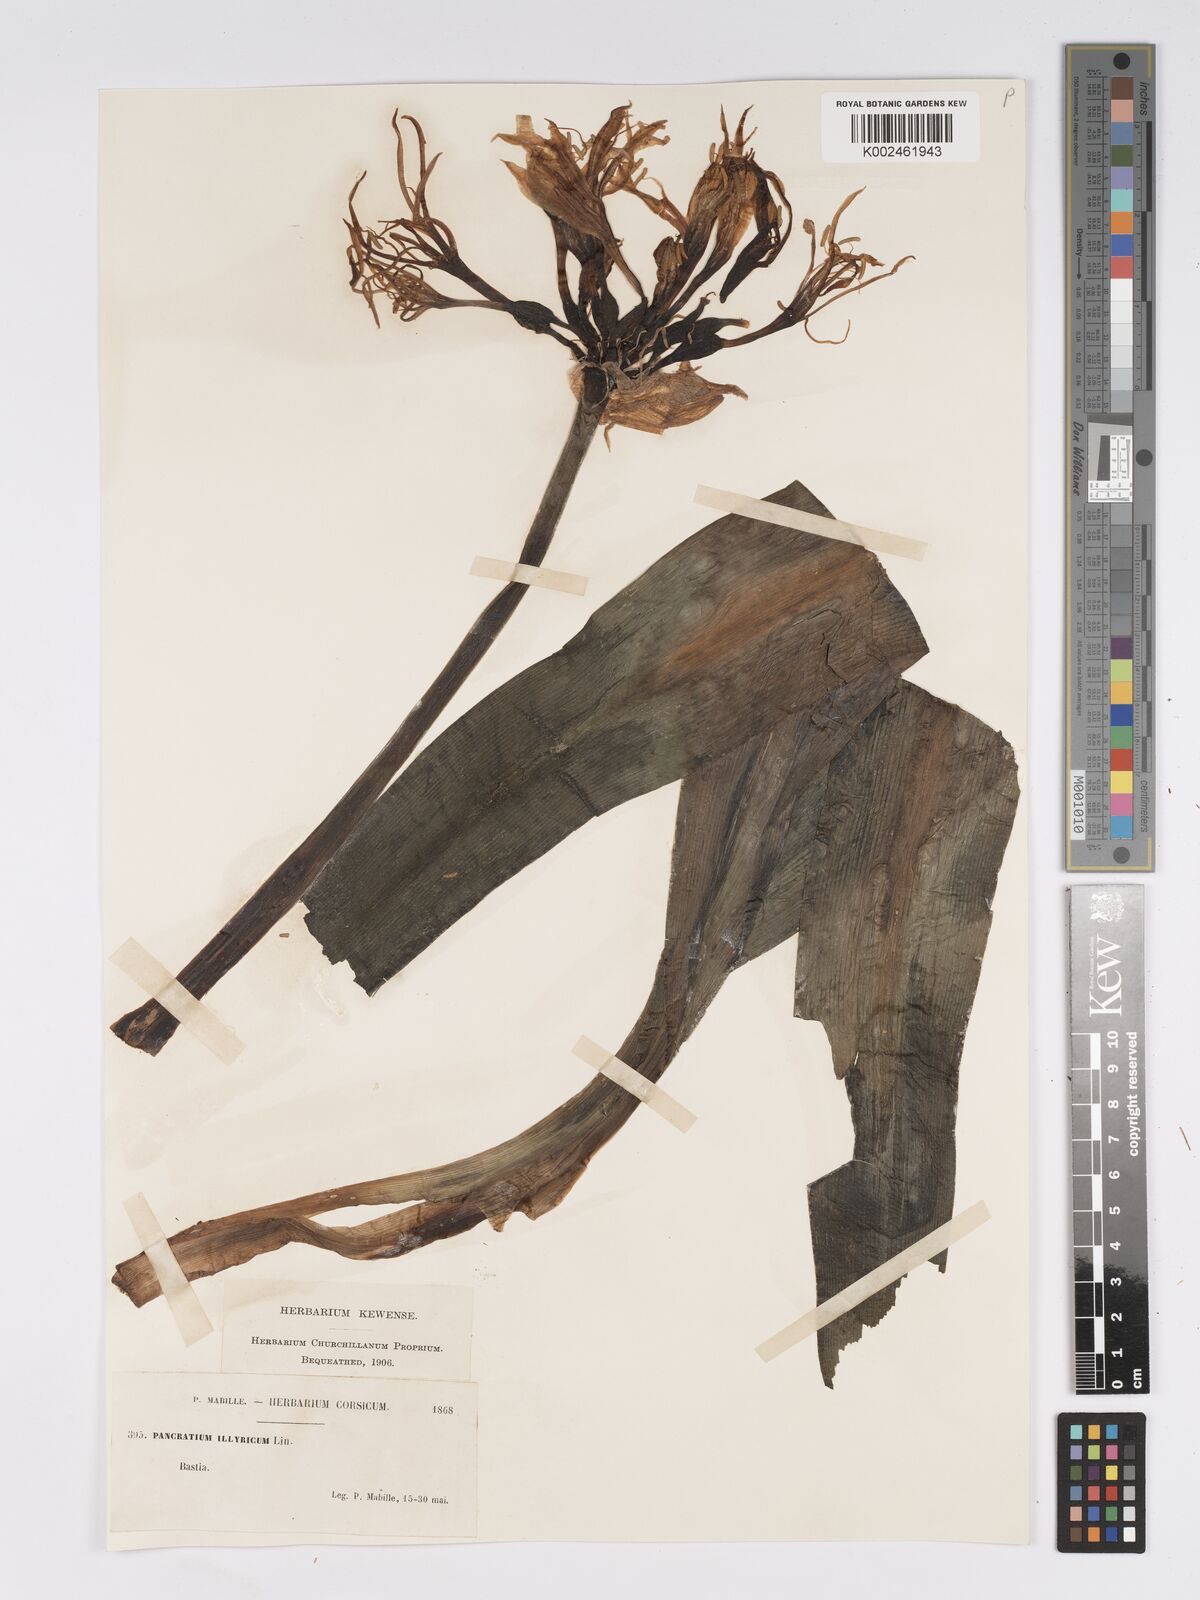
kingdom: Plantae
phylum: Tracheophyta
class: Liliopsida
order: Asparagales
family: Amaryllidaceae
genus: Pancratium
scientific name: Pancratium illyricum
